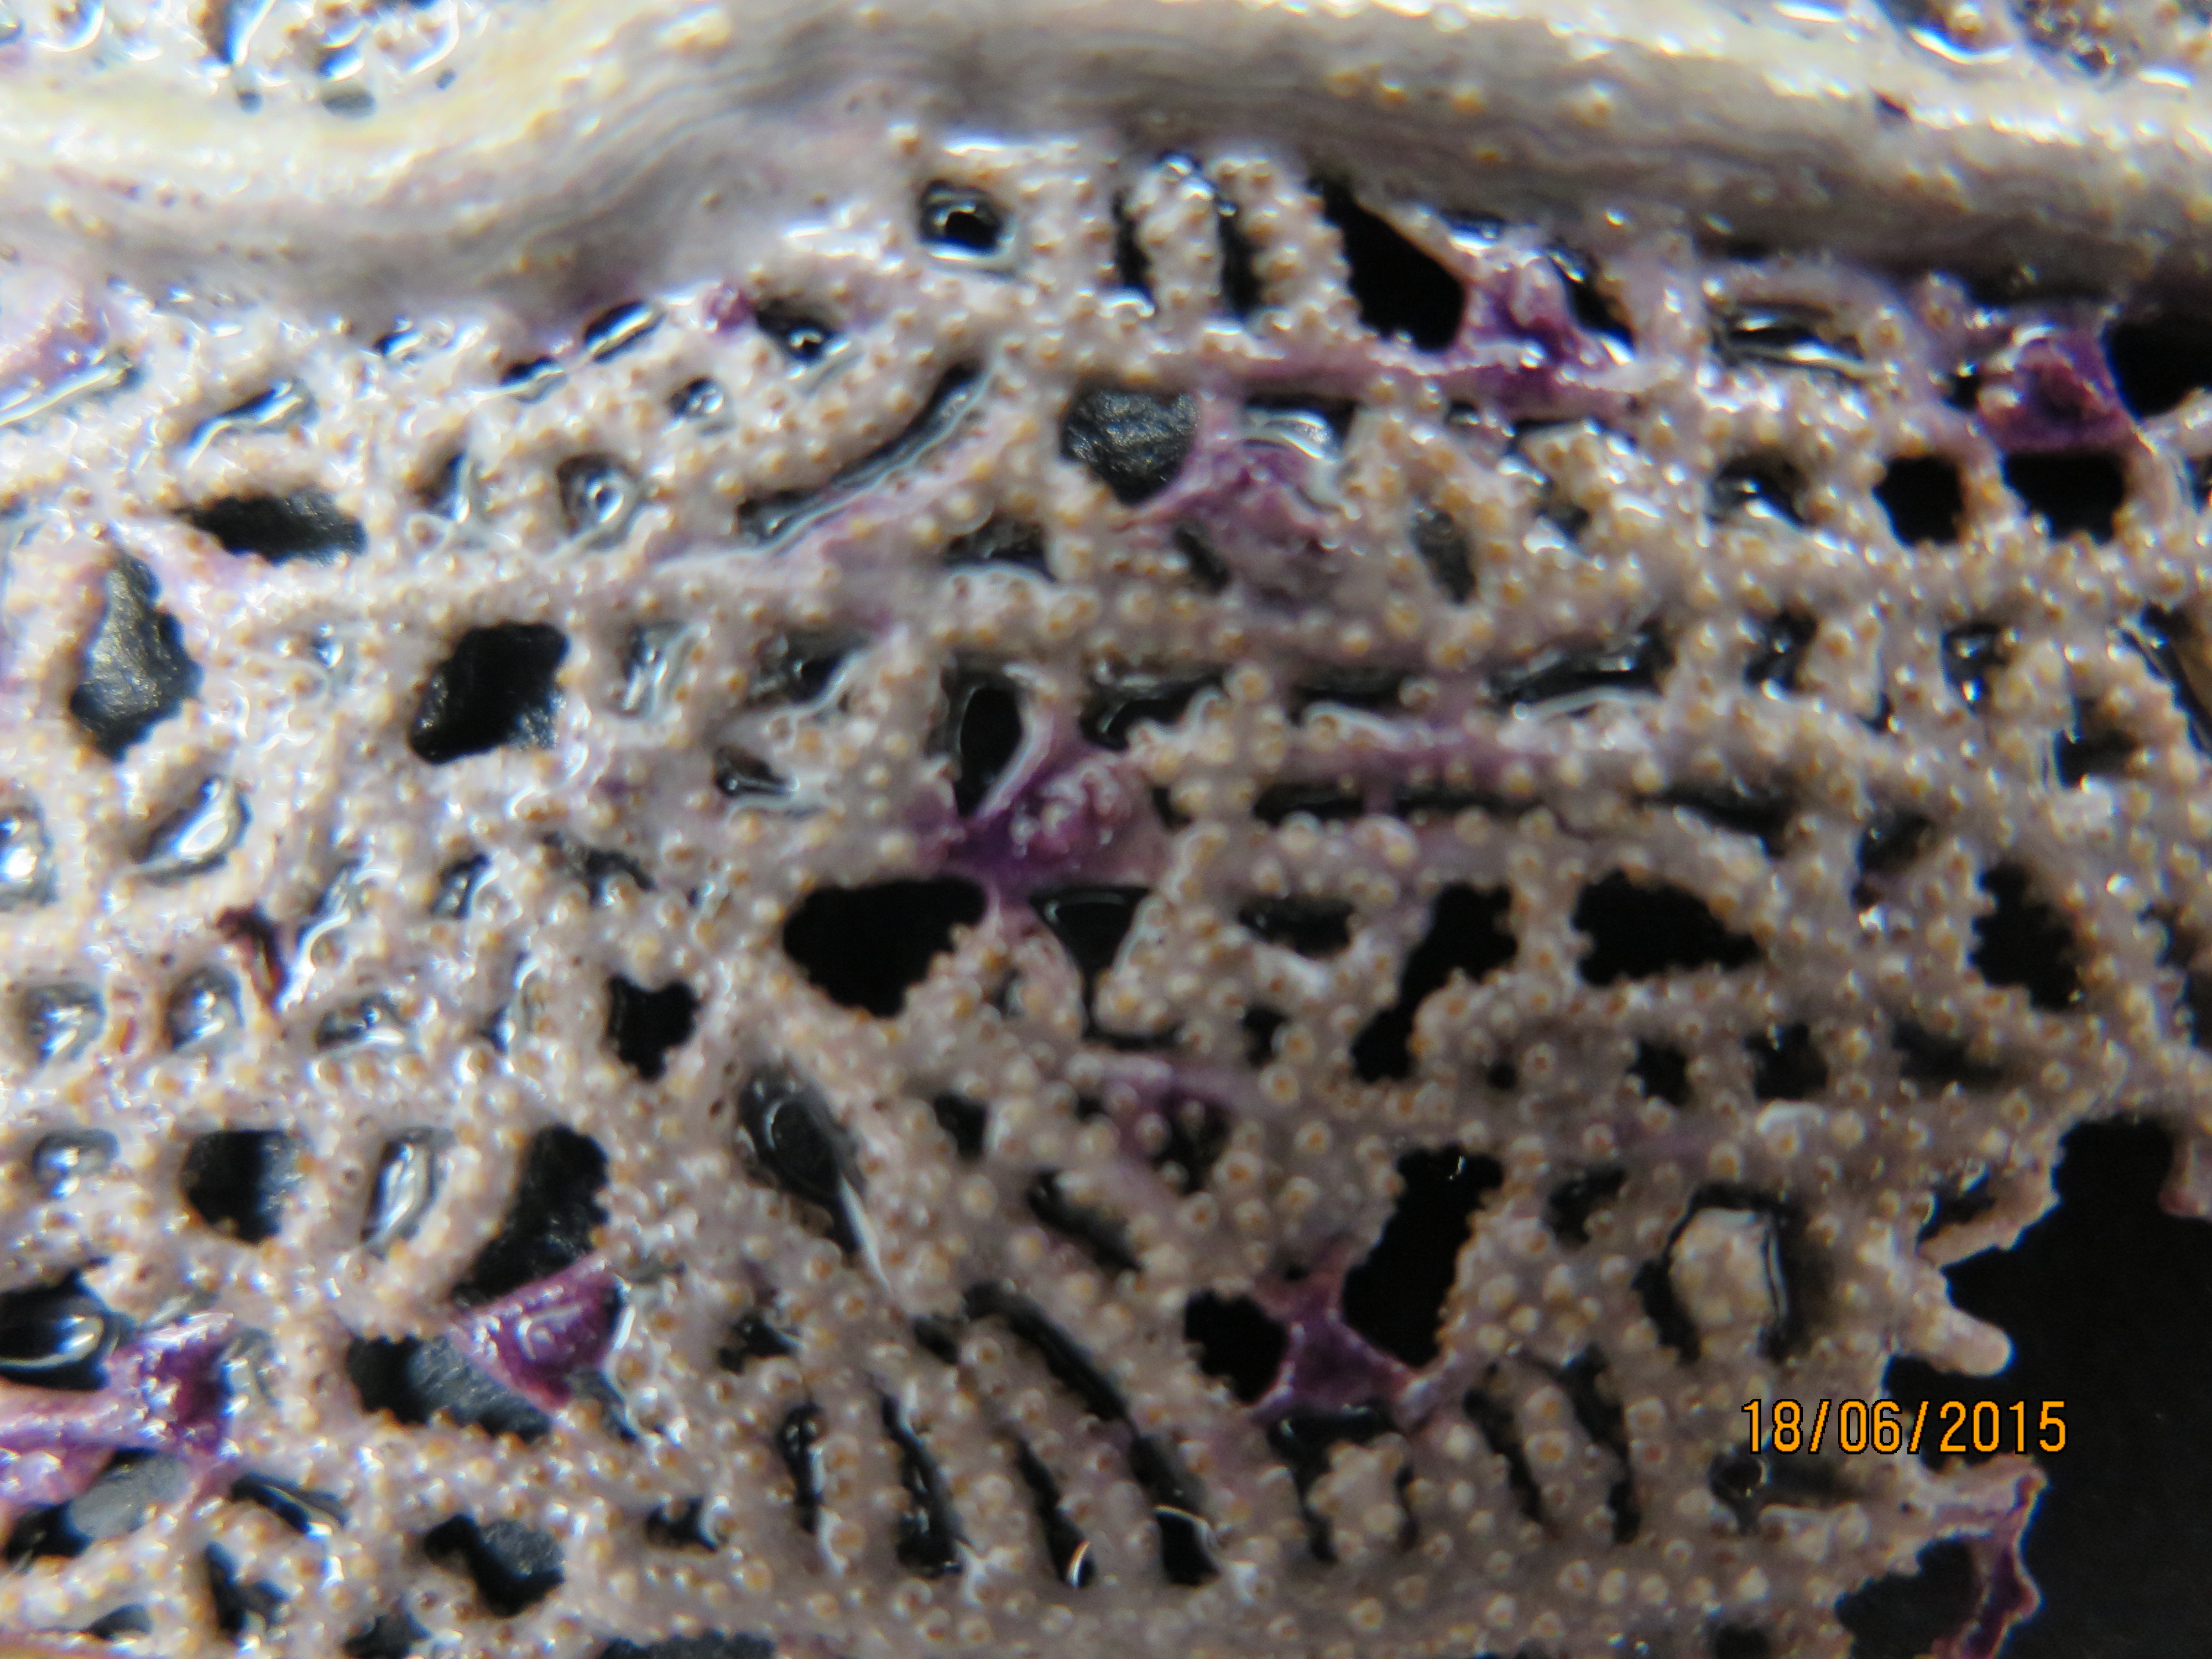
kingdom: Animalia
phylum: Cnidaria
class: Anthozoa
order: Malacalcyonacea
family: Gorgoniidae
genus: Gorgonia
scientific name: Gorgonia ventalina
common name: Common sea fan
